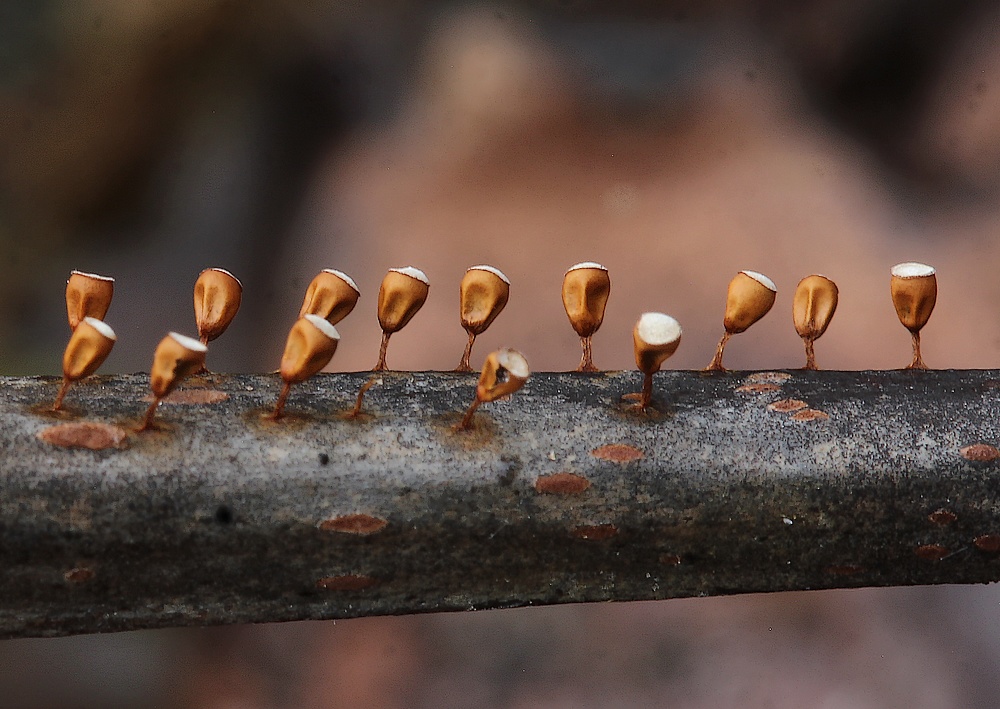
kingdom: Protozoa
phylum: Mycetozoa
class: Myxomycetes
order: Physarales
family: Physaraceae
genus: Craterium
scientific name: Craterium minutum
